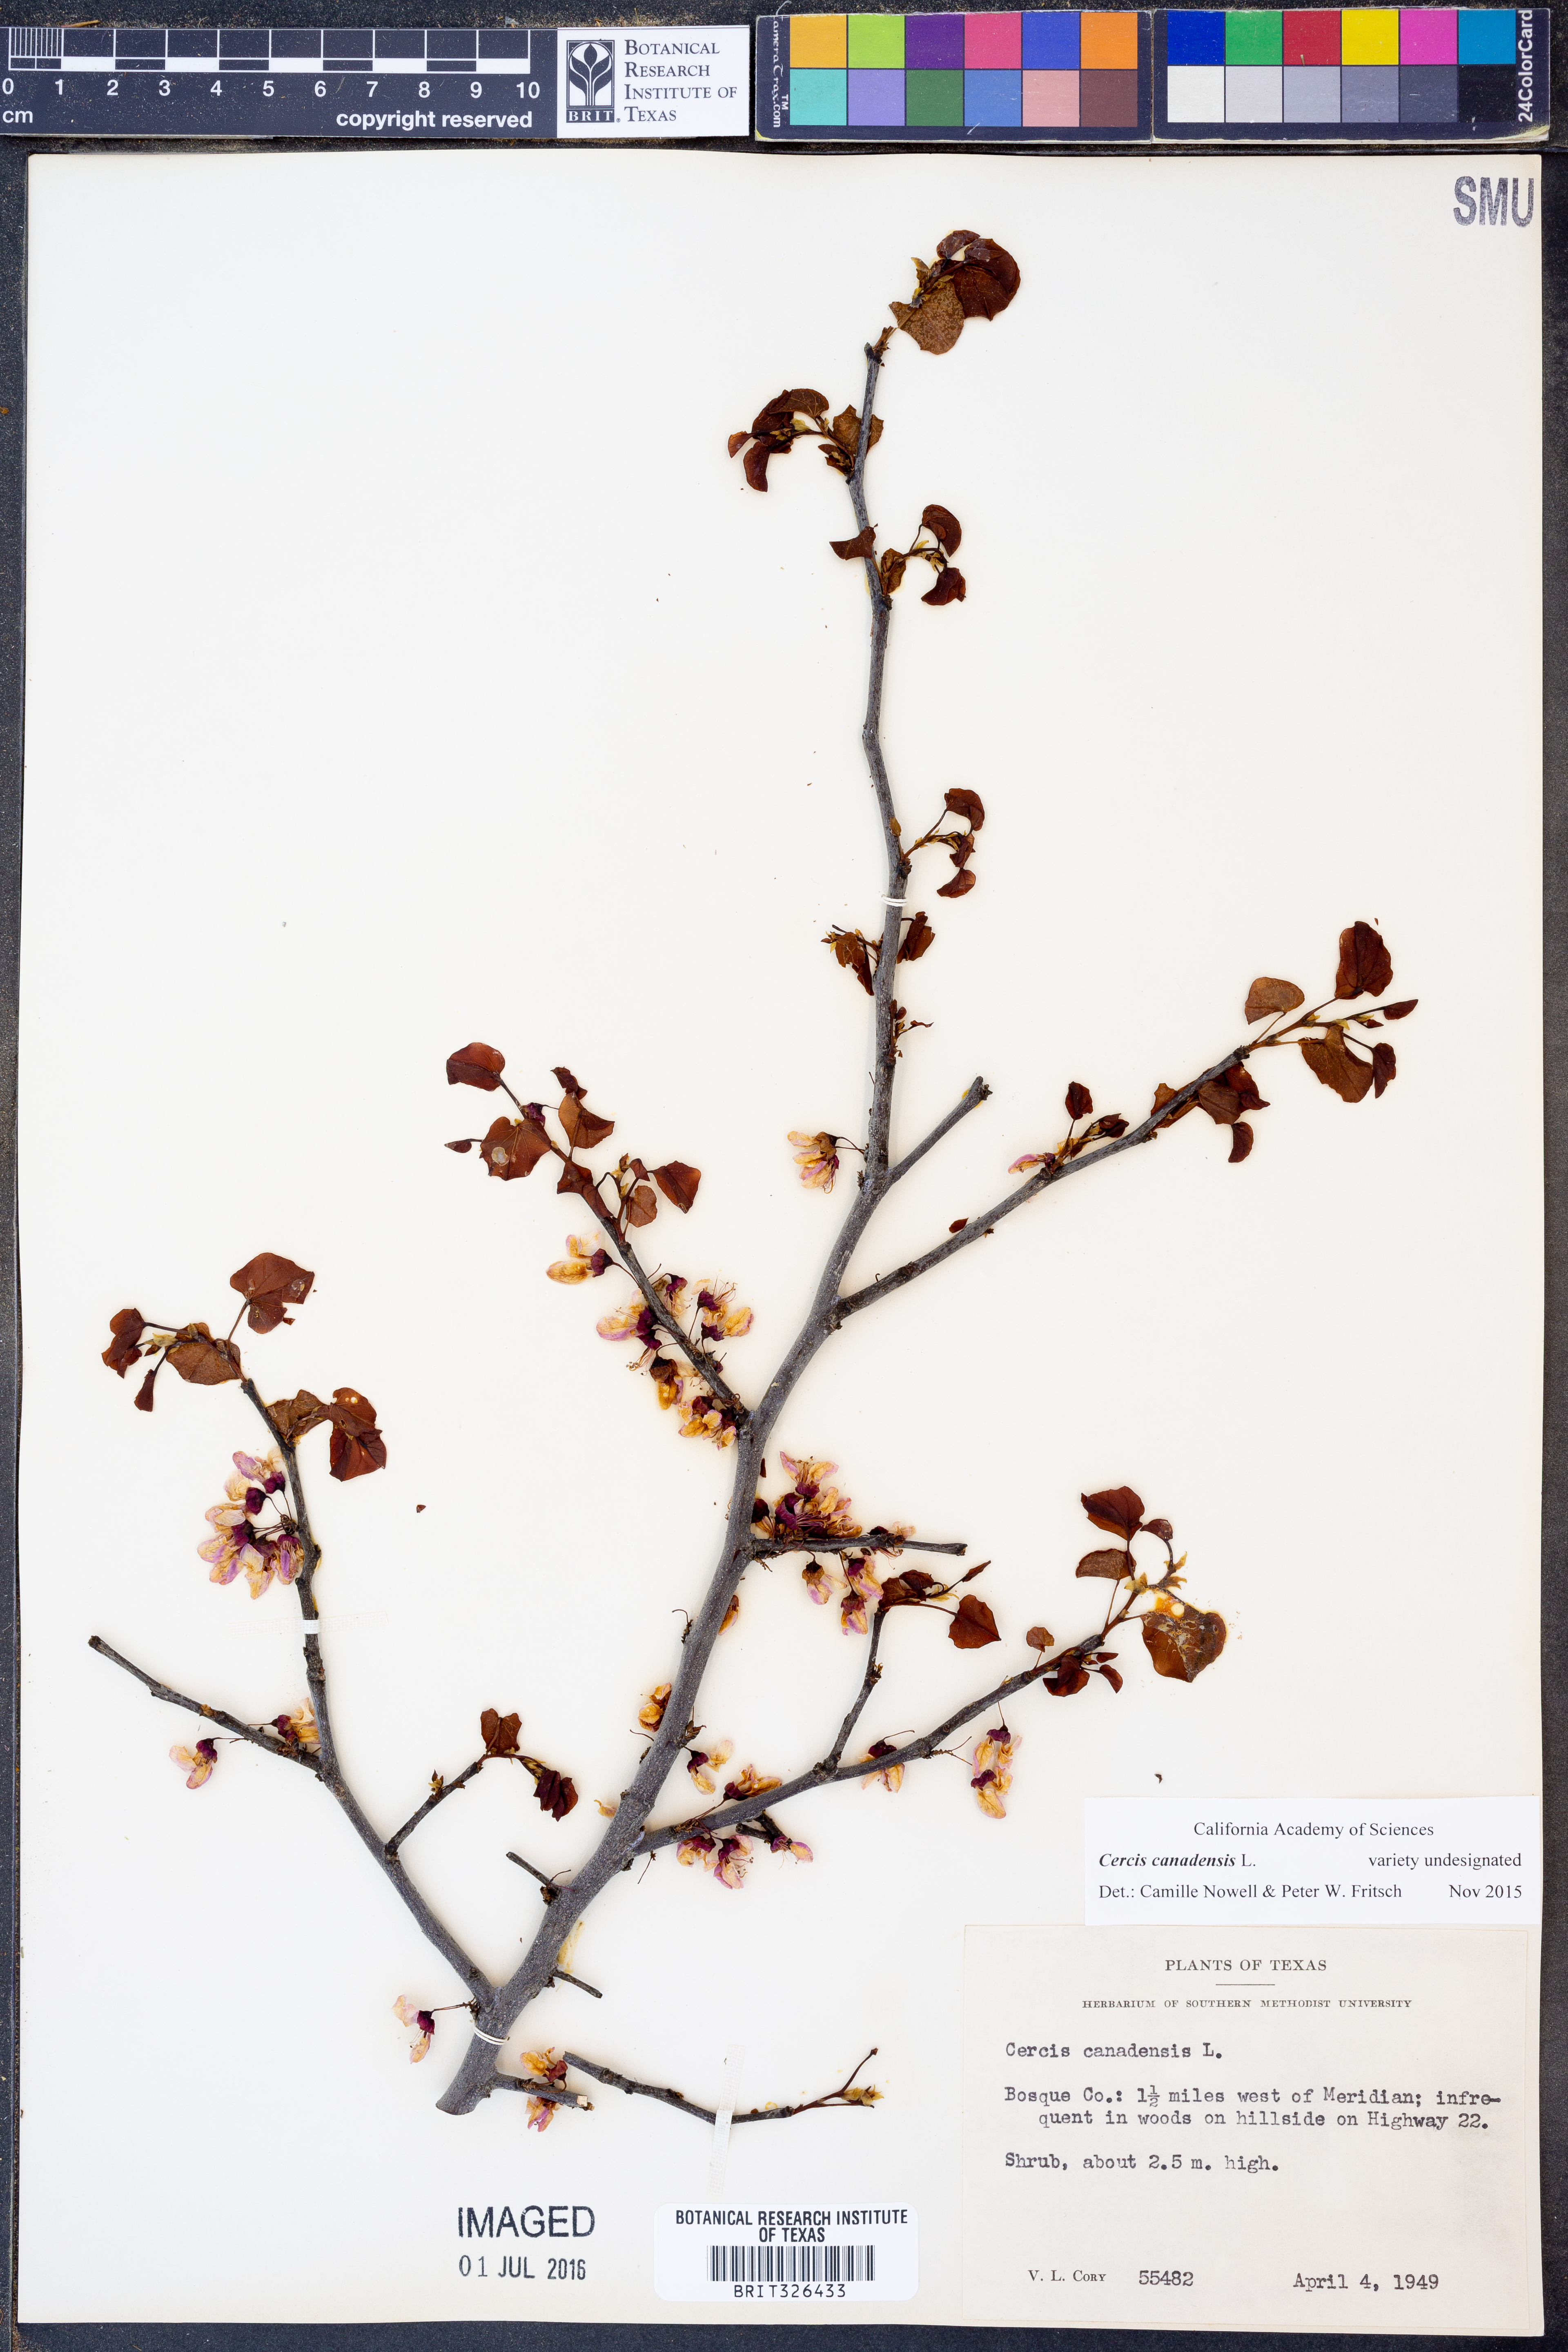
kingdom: Plantae
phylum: Tracheophyta
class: Magnoliopsida
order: Fabales
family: Fabaceae
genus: Cercis
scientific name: Cercis canadensis
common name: Eastern redbud
